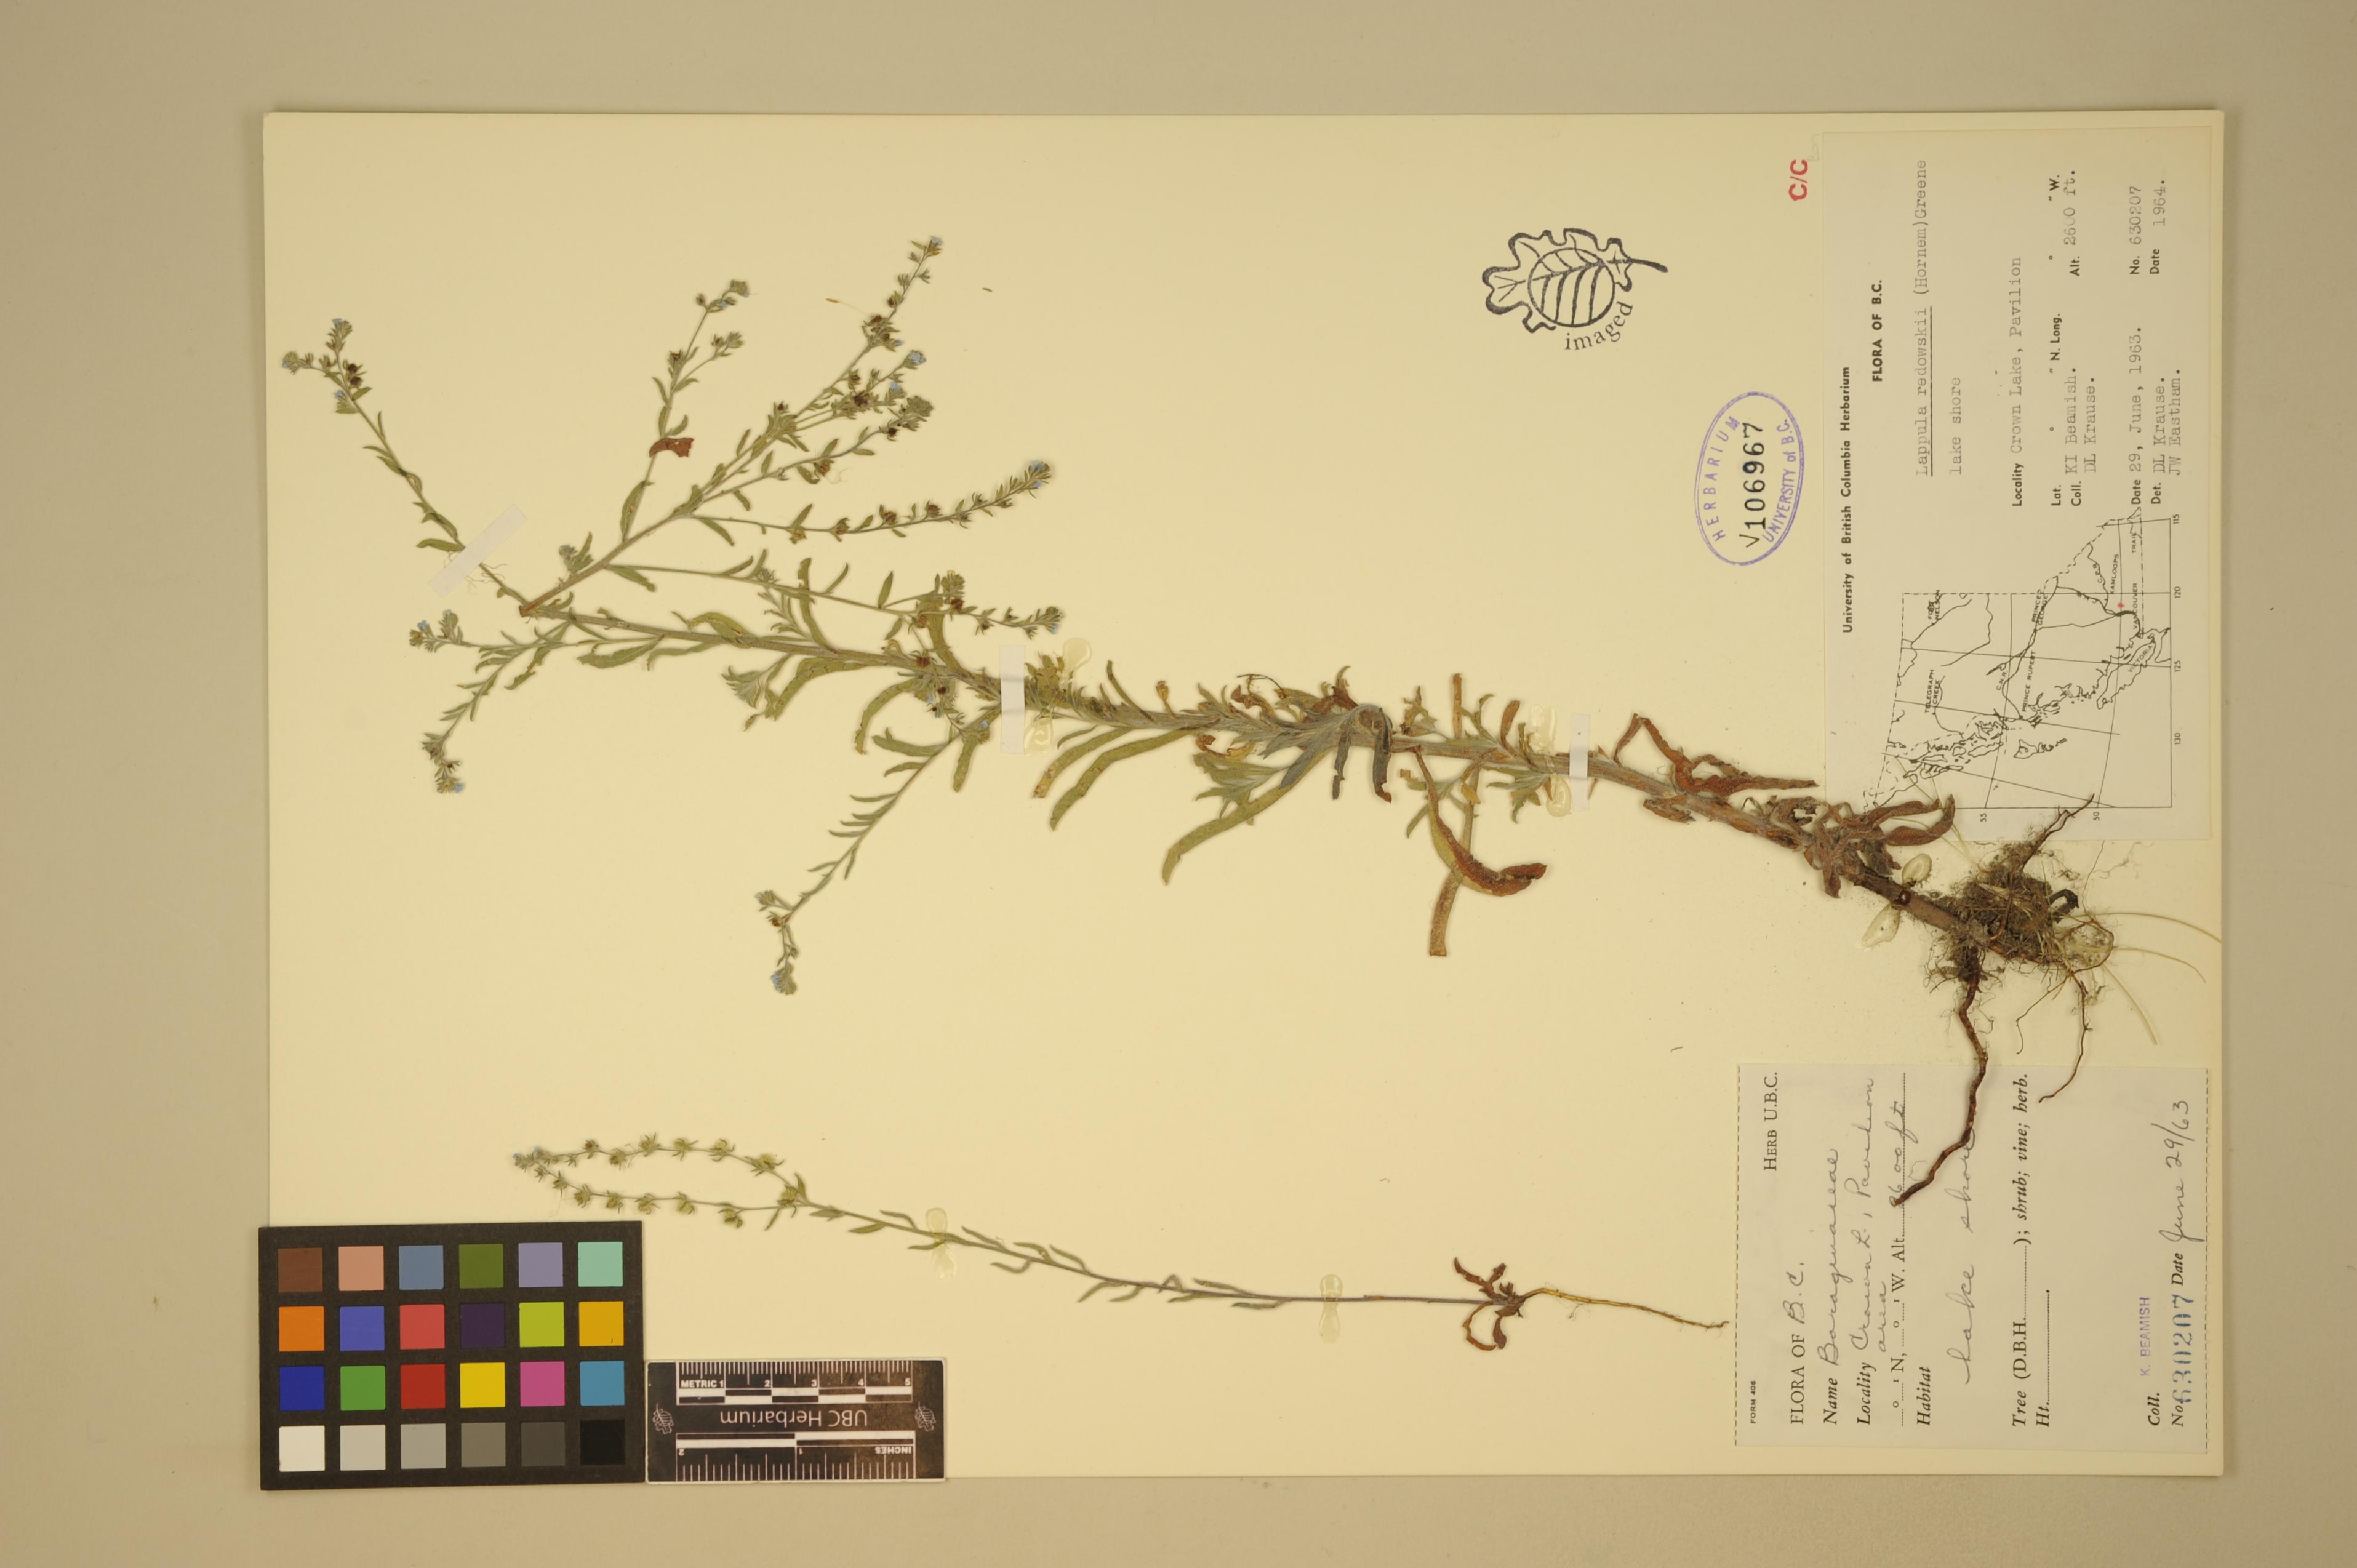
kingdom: Plantae
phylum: Tracheophyta
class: Magnoliopsida
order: Boraginales
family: Boraginaceae
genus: Lappula
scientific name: Lappula squarrosa
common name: European stickseed
